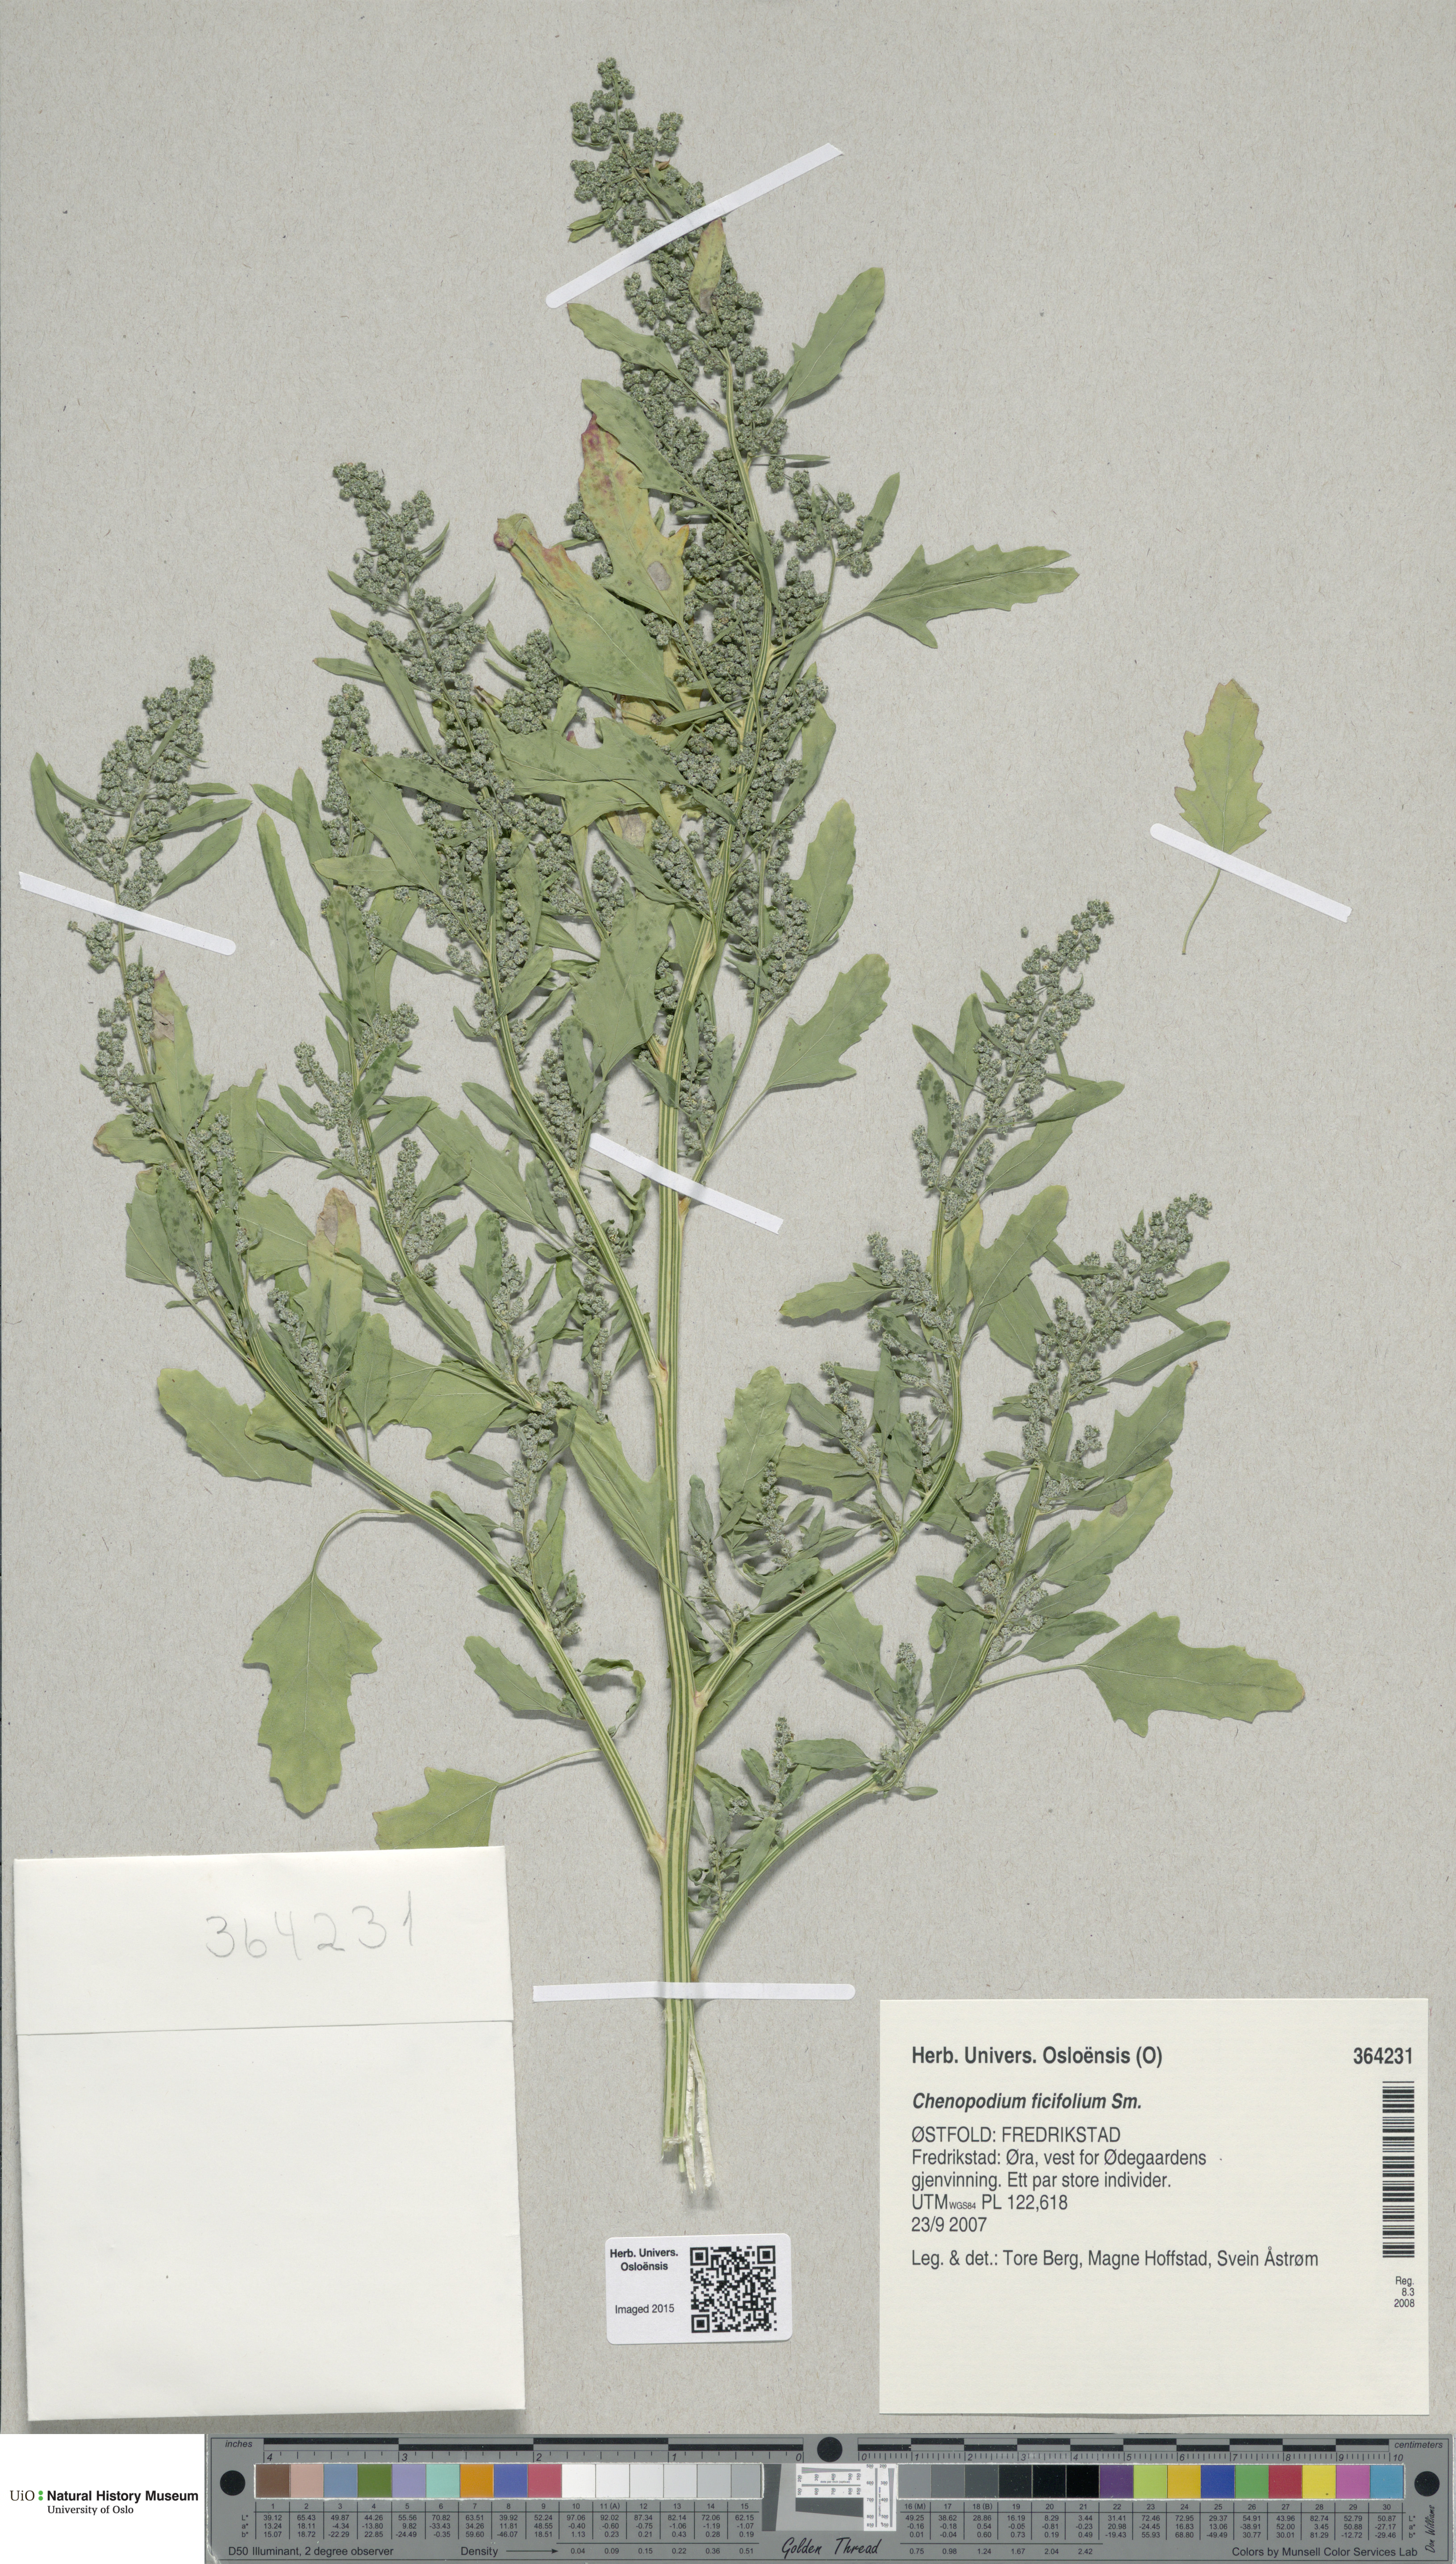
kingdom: Plantae
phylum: Tracheophyta
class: Magnoliopsida
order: Caryophyllales
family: Amaranthaceae
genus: Chenopodium
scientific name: Chenopodium ficifolium
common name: Fig-leaved goosefoot
